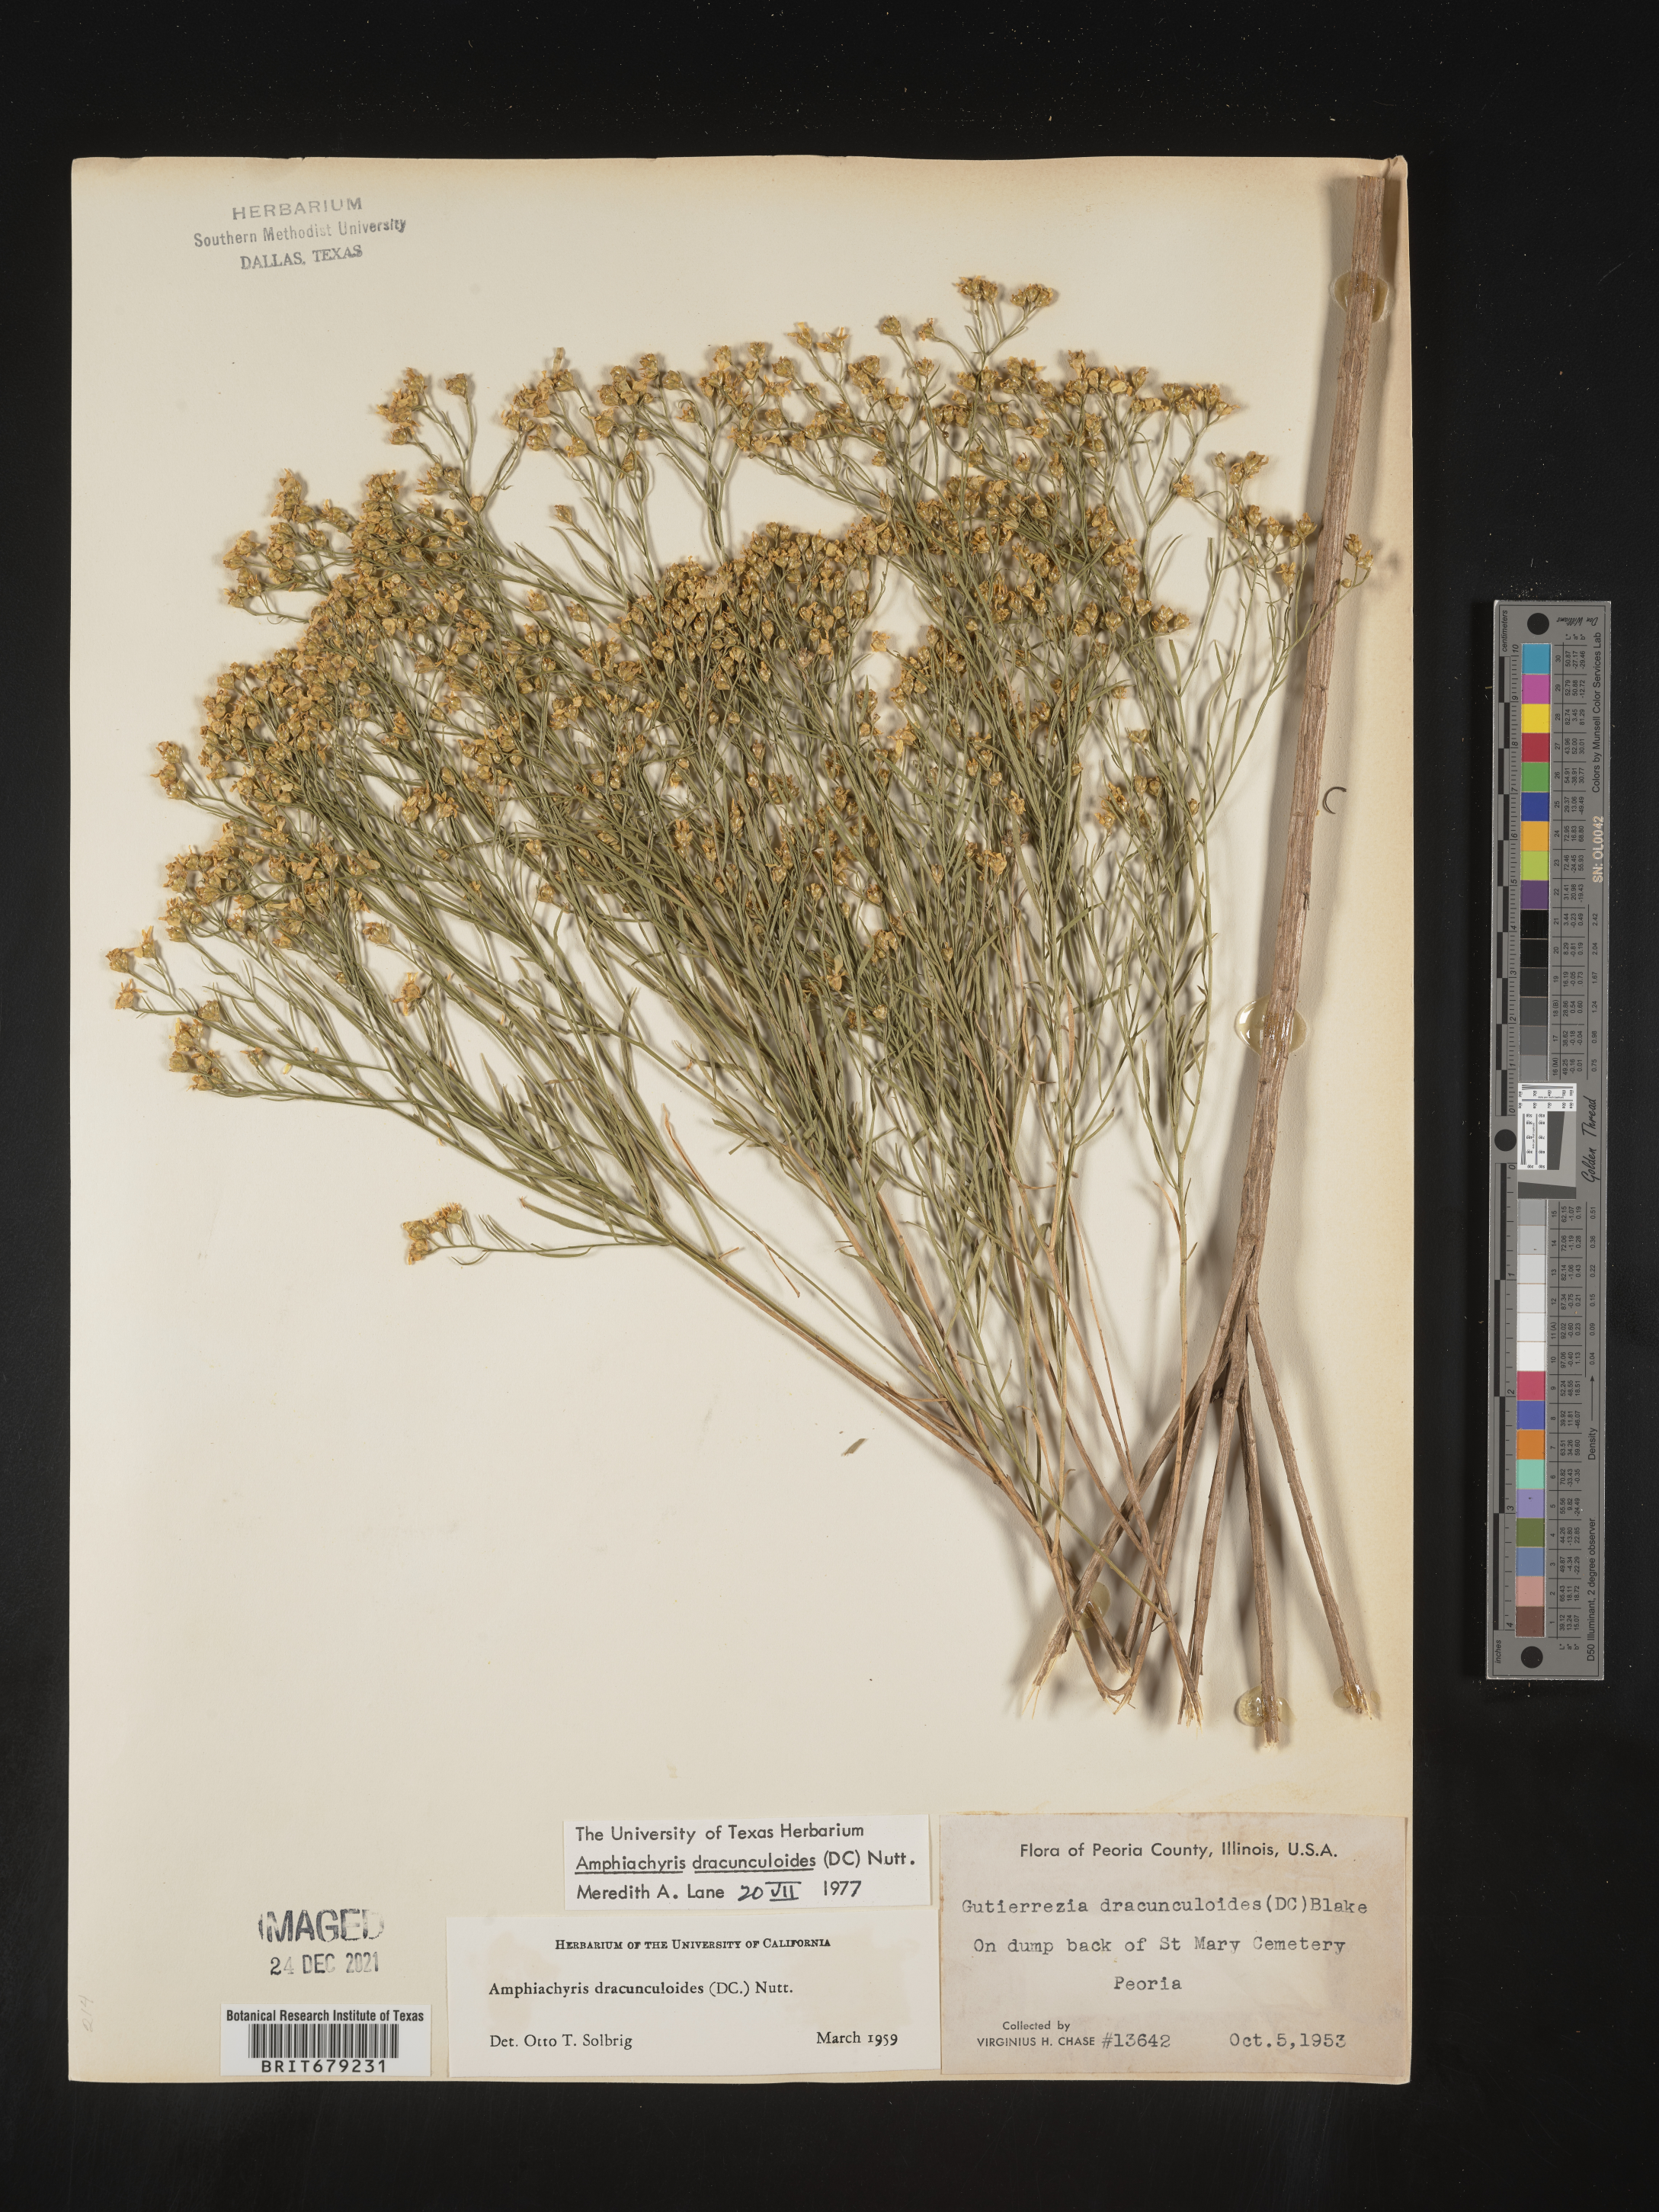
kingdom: Plantae
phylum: Tracheophyta
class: Magnoliopsida
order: Asterales
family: Asteraceae
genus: Amphiachyris
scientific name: Amphiachyris dracunculoides
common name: Broomweed
